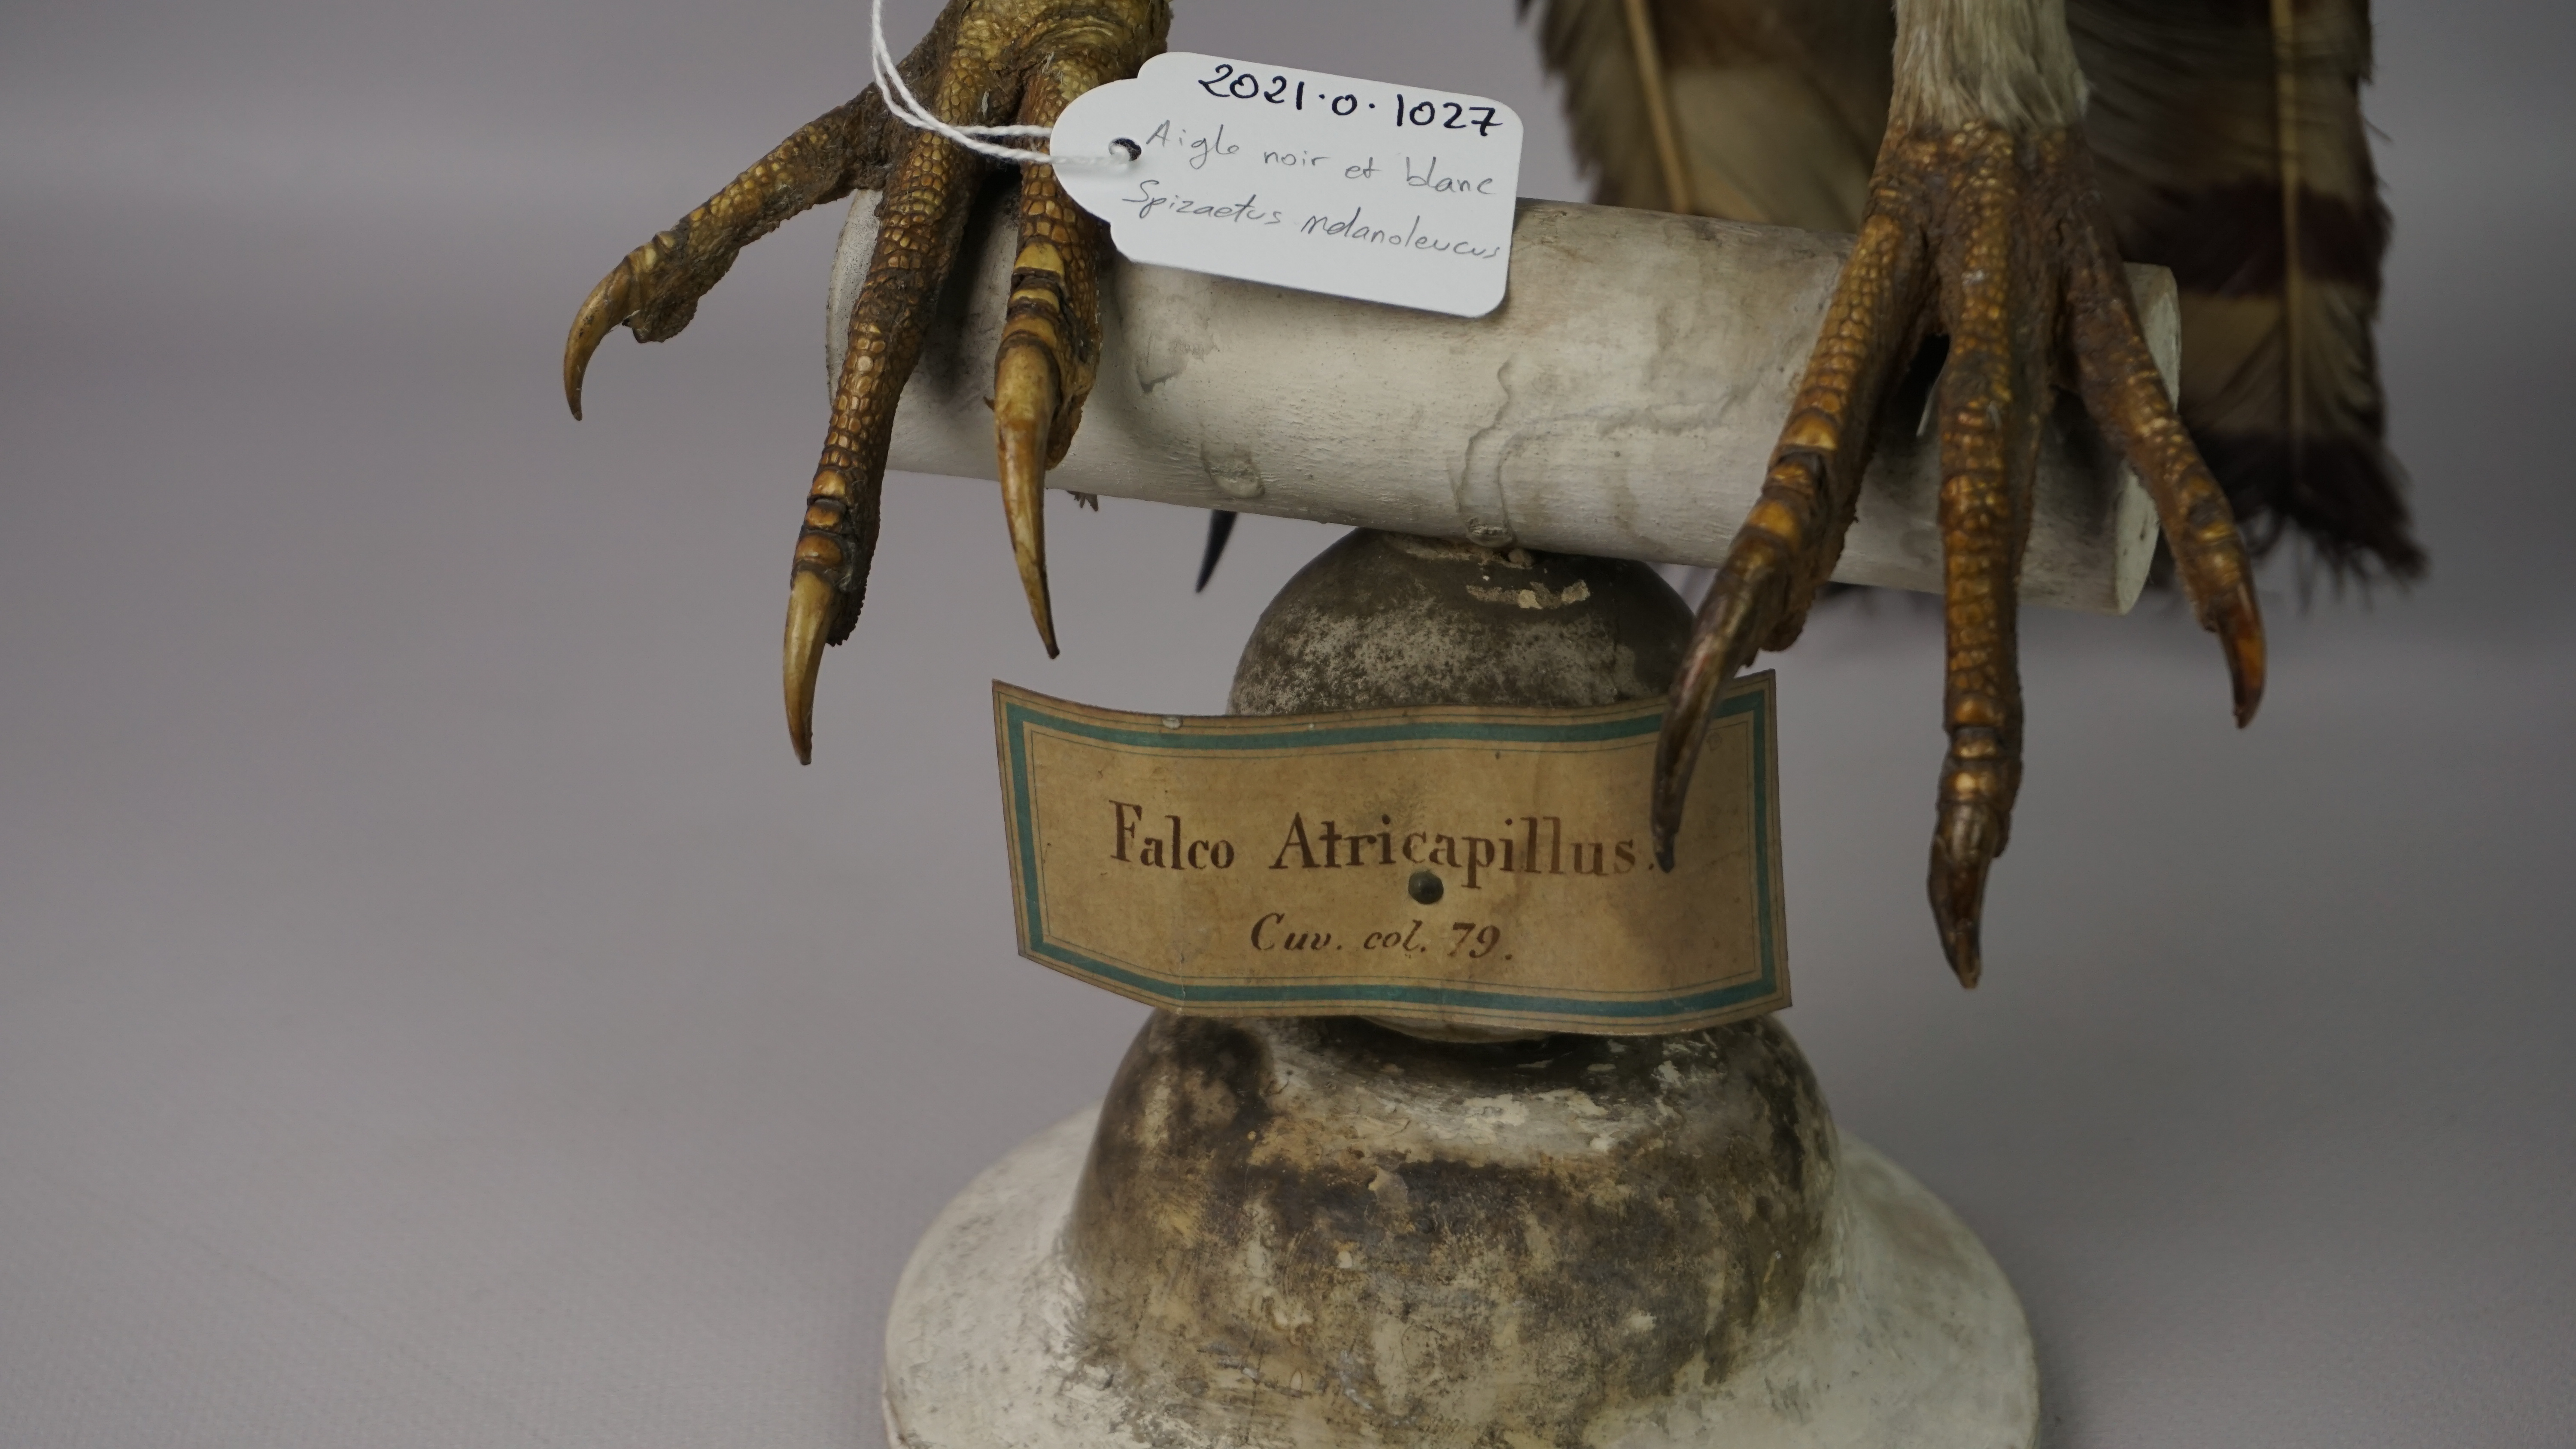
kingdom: Animalia
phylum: Chordata
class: Aves
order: Accipitriformes
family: Accipitridae
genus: Spizaetus
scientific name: Spizaetus melanoleucus
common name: Black-and-white hawk-eagle
